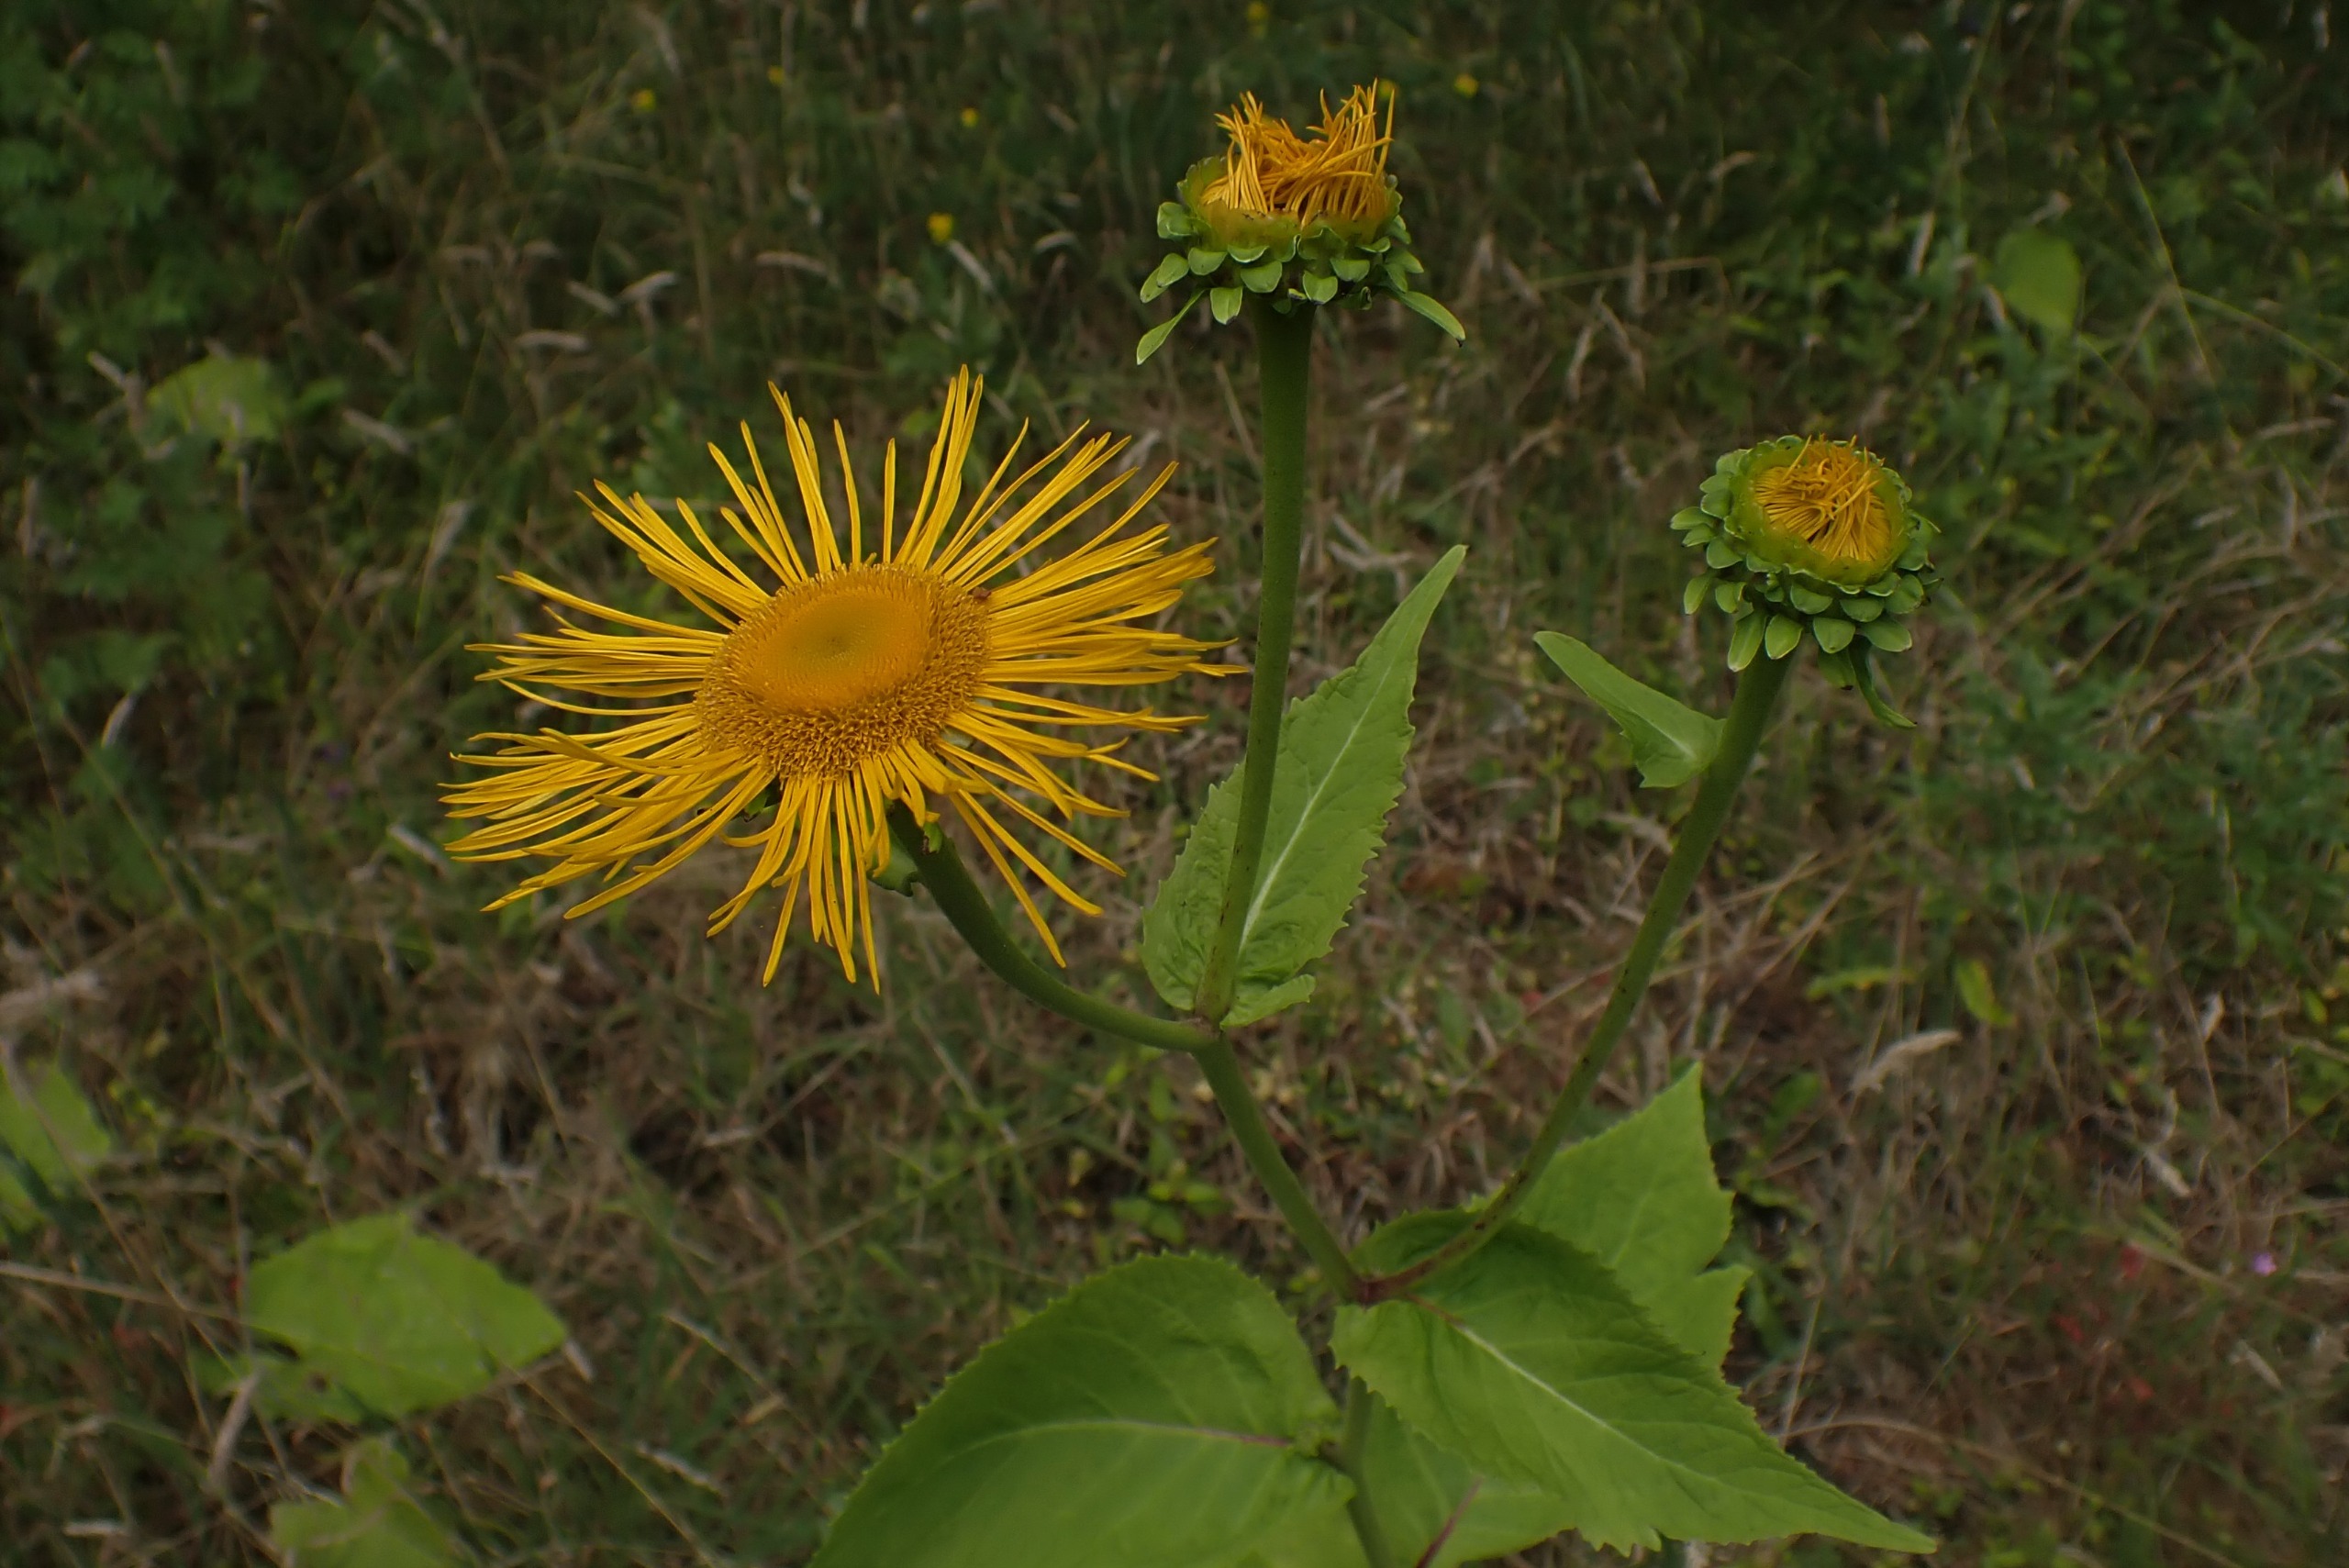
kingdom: Plantae
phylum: Tracheophyta
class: Magnoliopsida
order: Asterales
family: Asteraceae
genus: Telekia
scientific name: Telekia speciosa
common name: Tusindstråle
